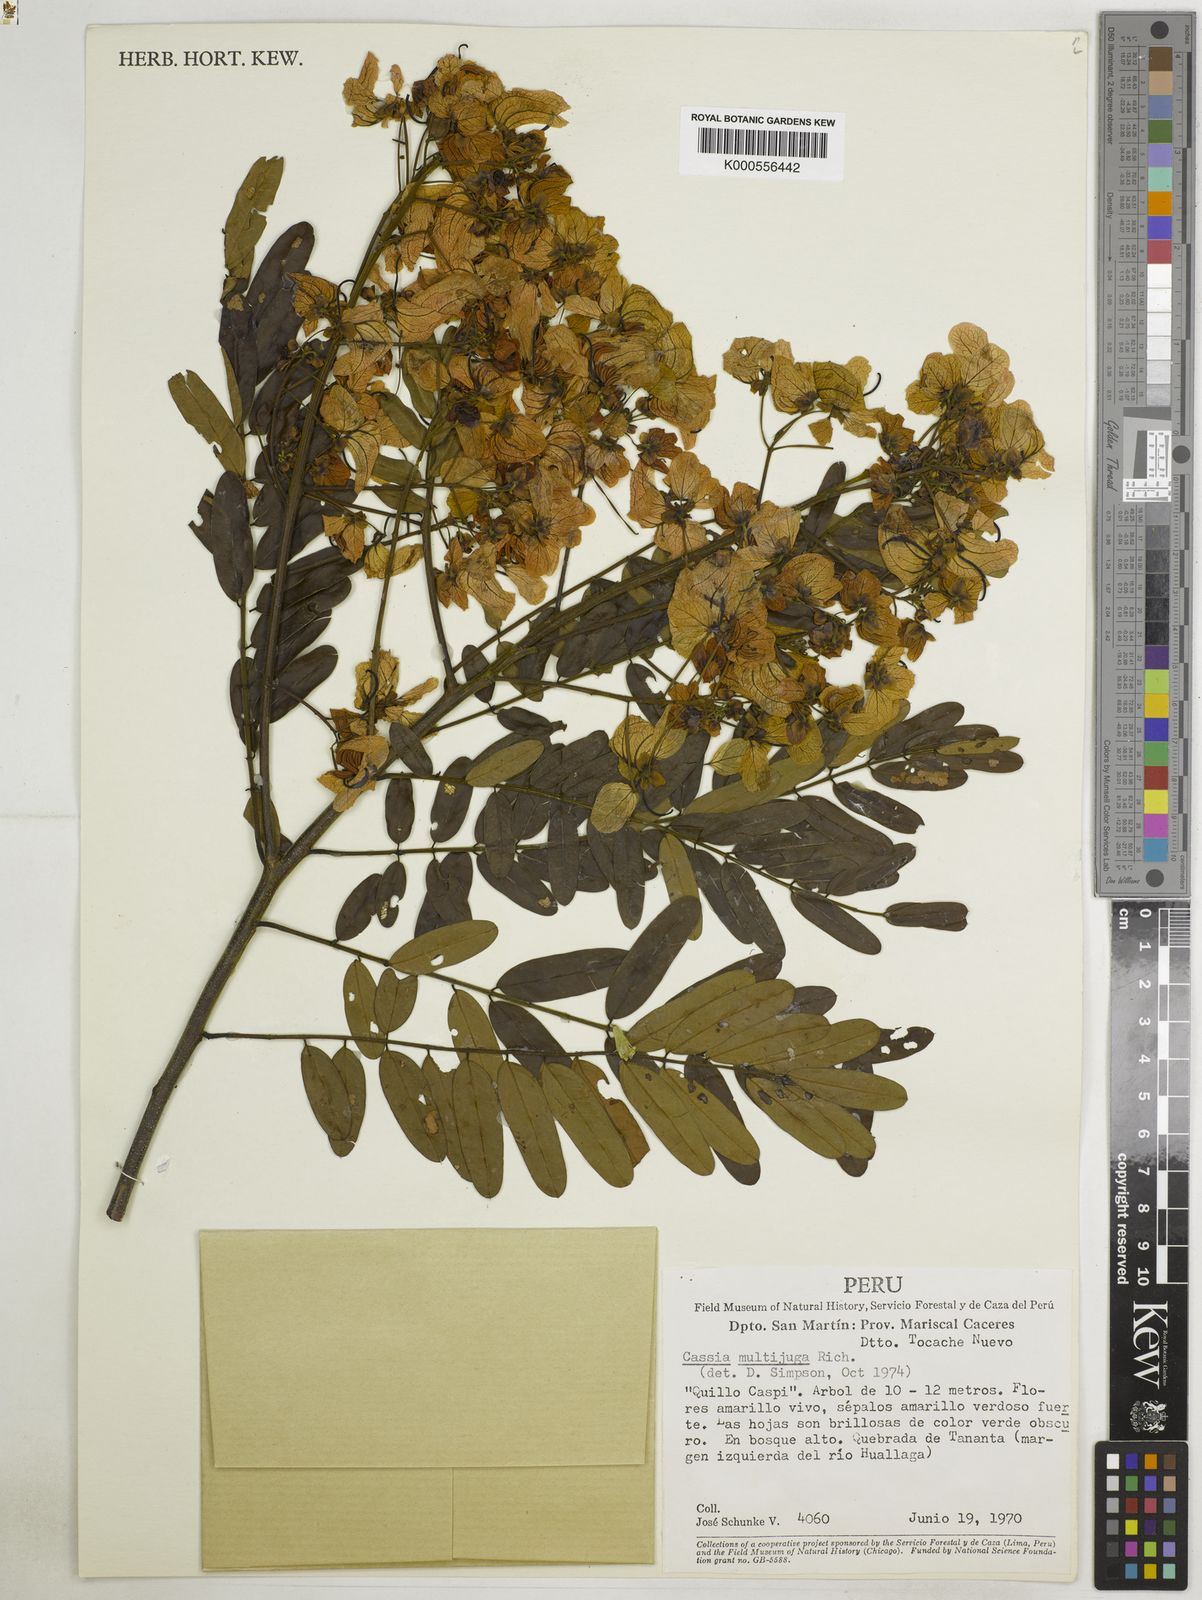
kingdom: Plantae
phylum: Tracheophyta
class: Magnoliopsida
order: Fabales
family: Fabaceae
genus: Senna
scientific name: Senna multijuga
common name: False sicklepod
